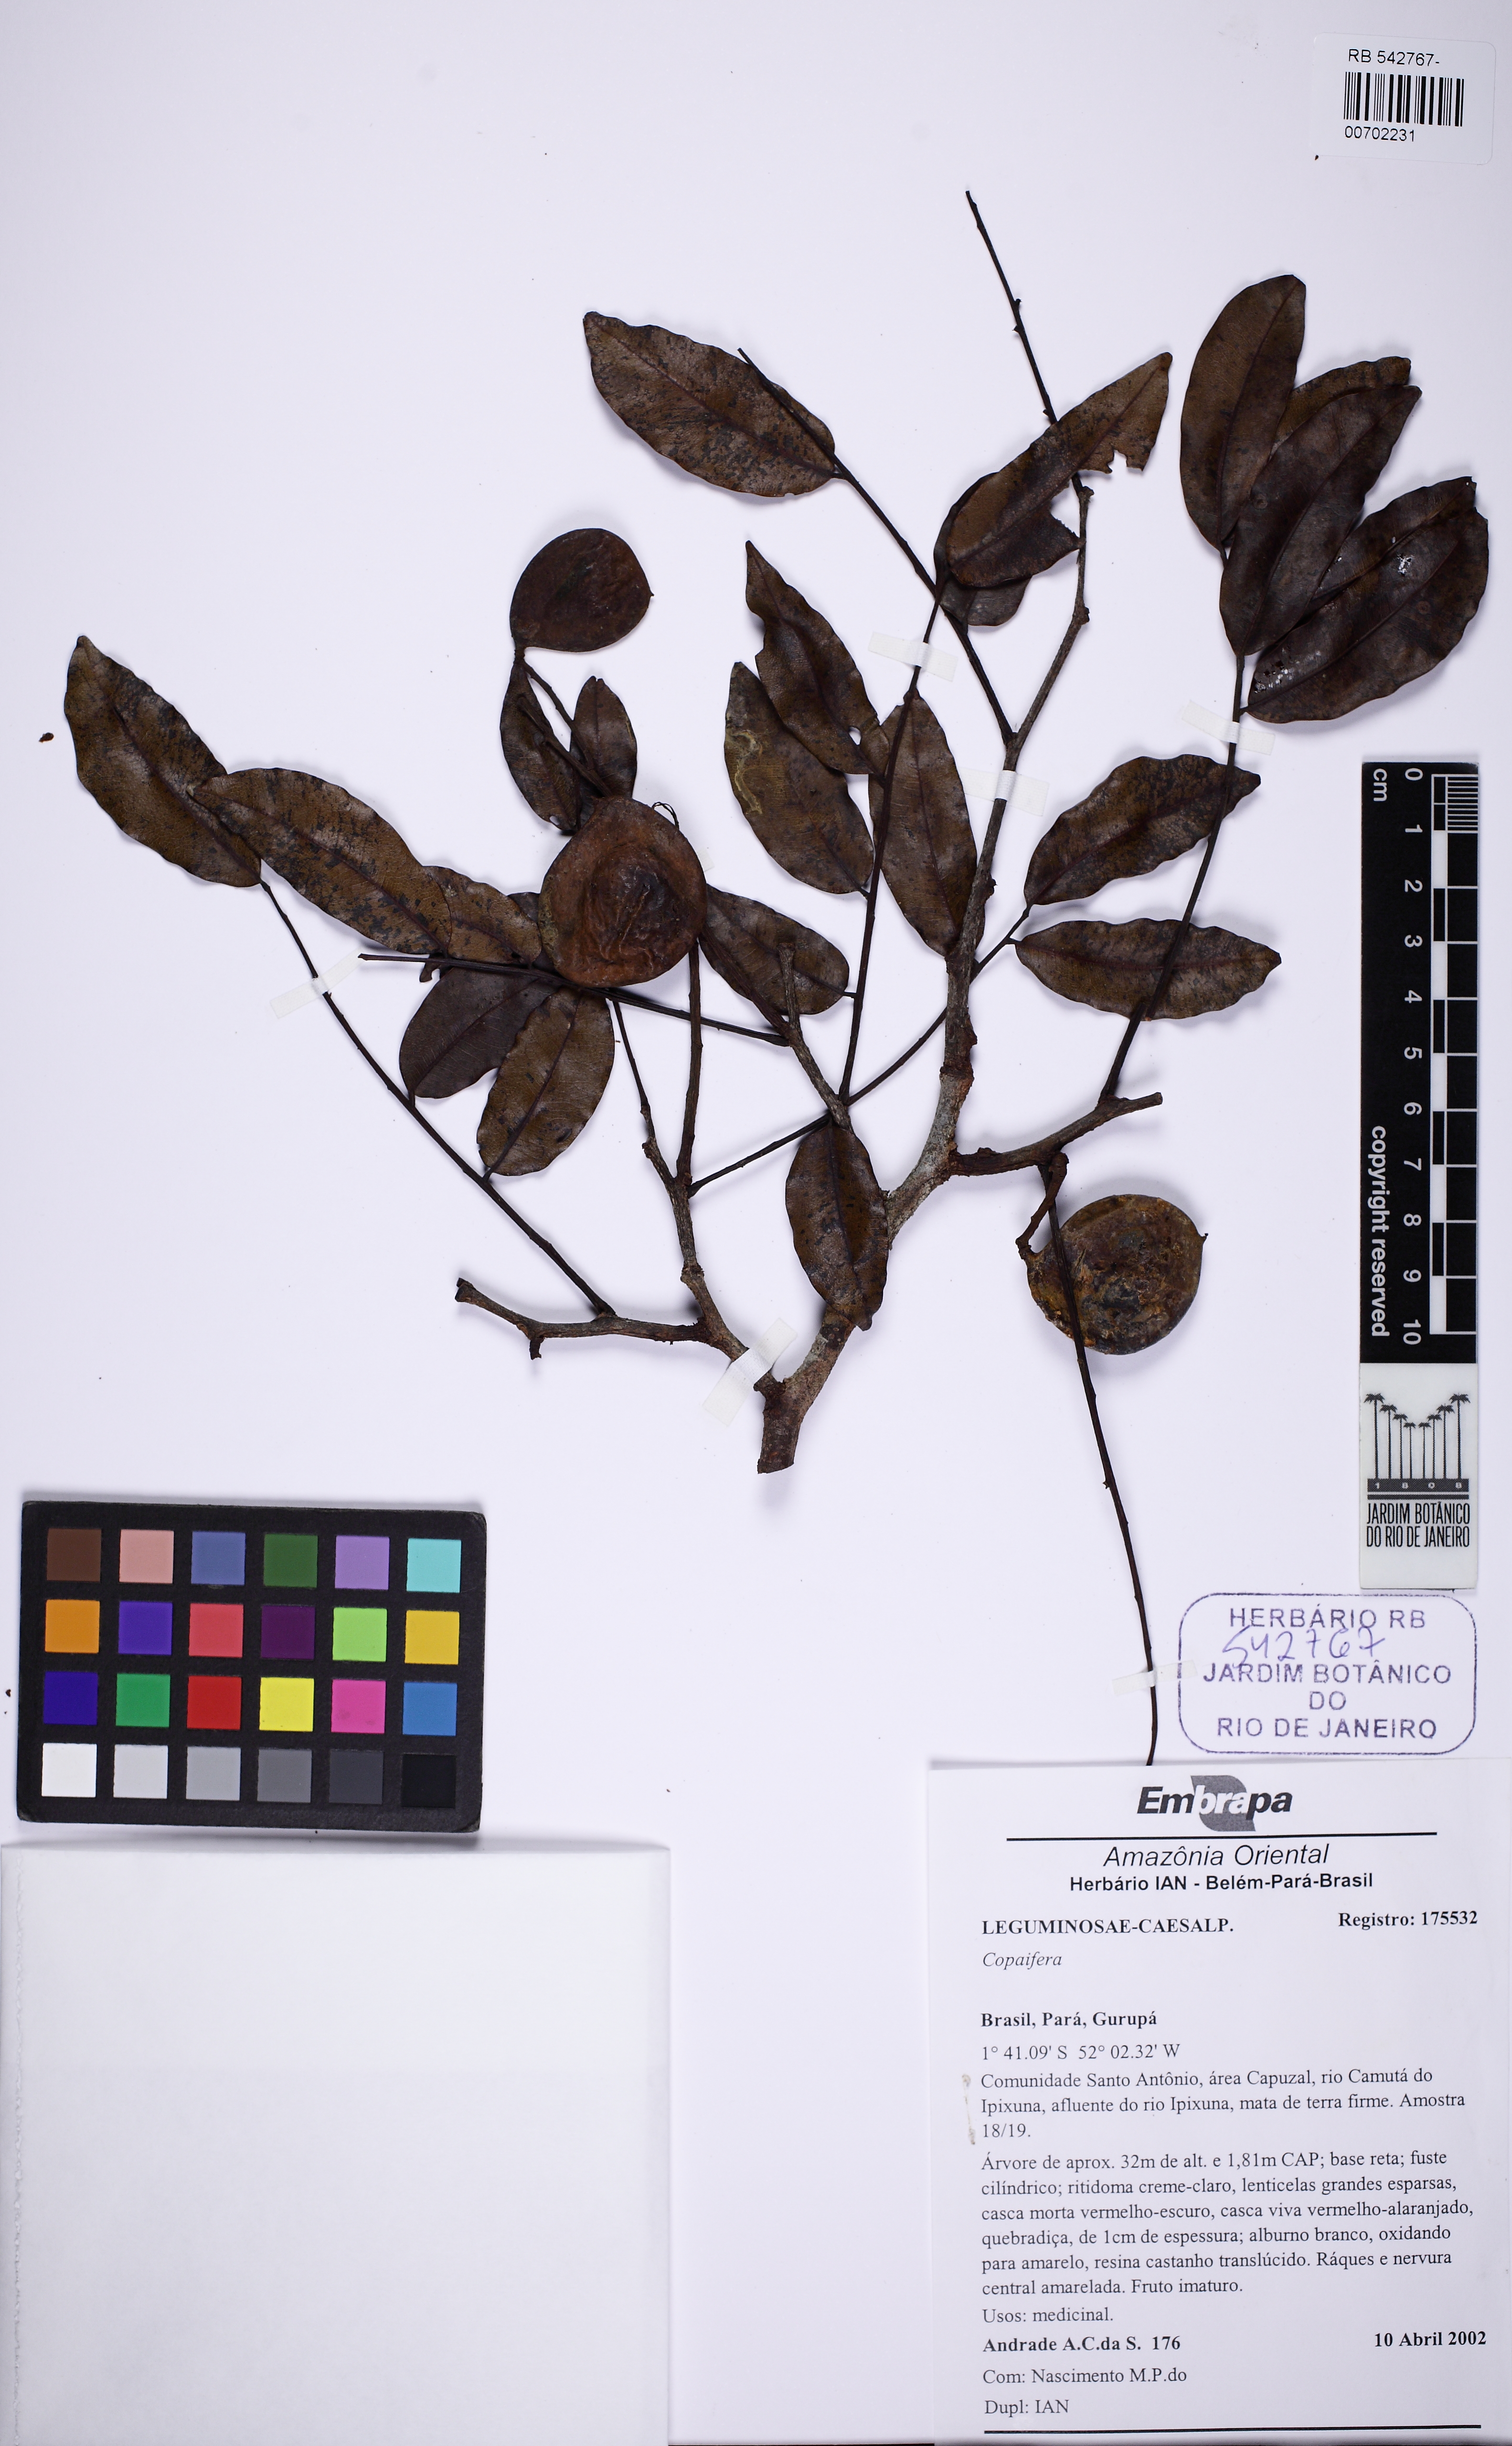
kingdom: Plantae
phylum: Tracheophyta
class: Magnoliopsida
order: Fabales
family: Fabaceae
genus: Copaifera
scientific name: Copaifera
